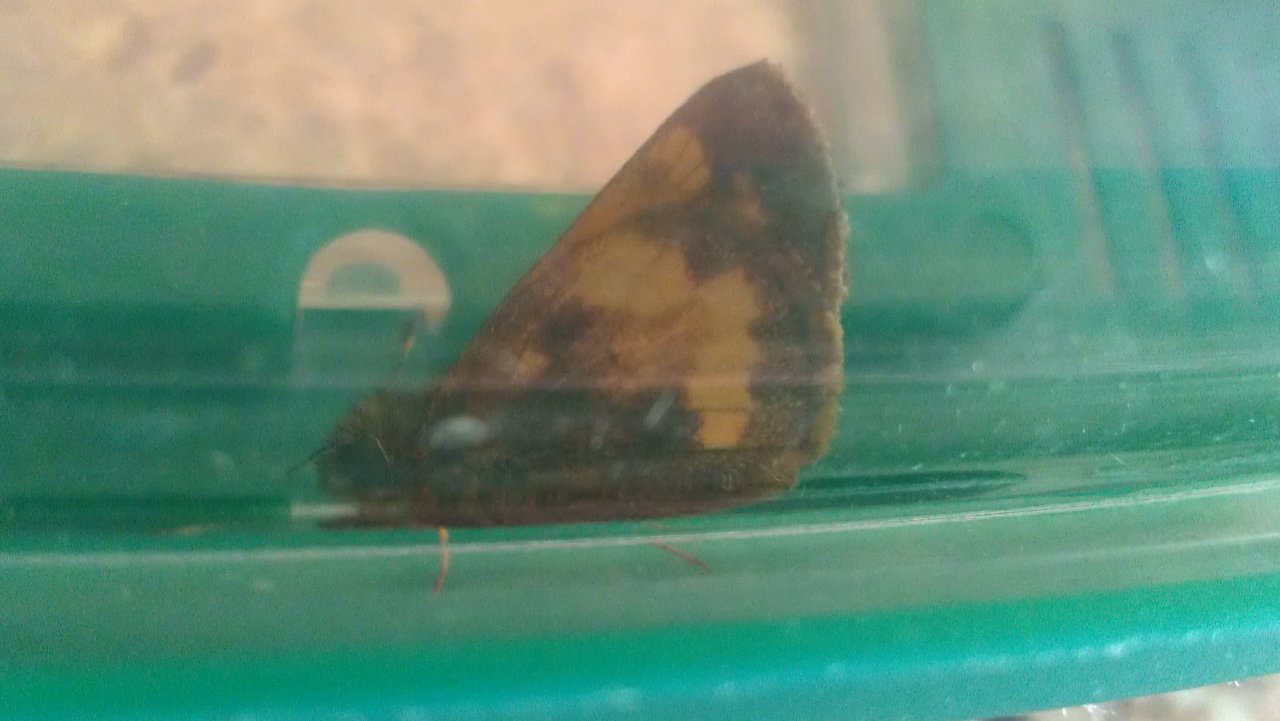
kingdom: Animalia
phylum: Arthropoda
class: Insecta
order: Lepidoptera
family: Hesperiidae
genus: Lon
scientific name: Lon hobomok
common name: Hobomok Skipper
